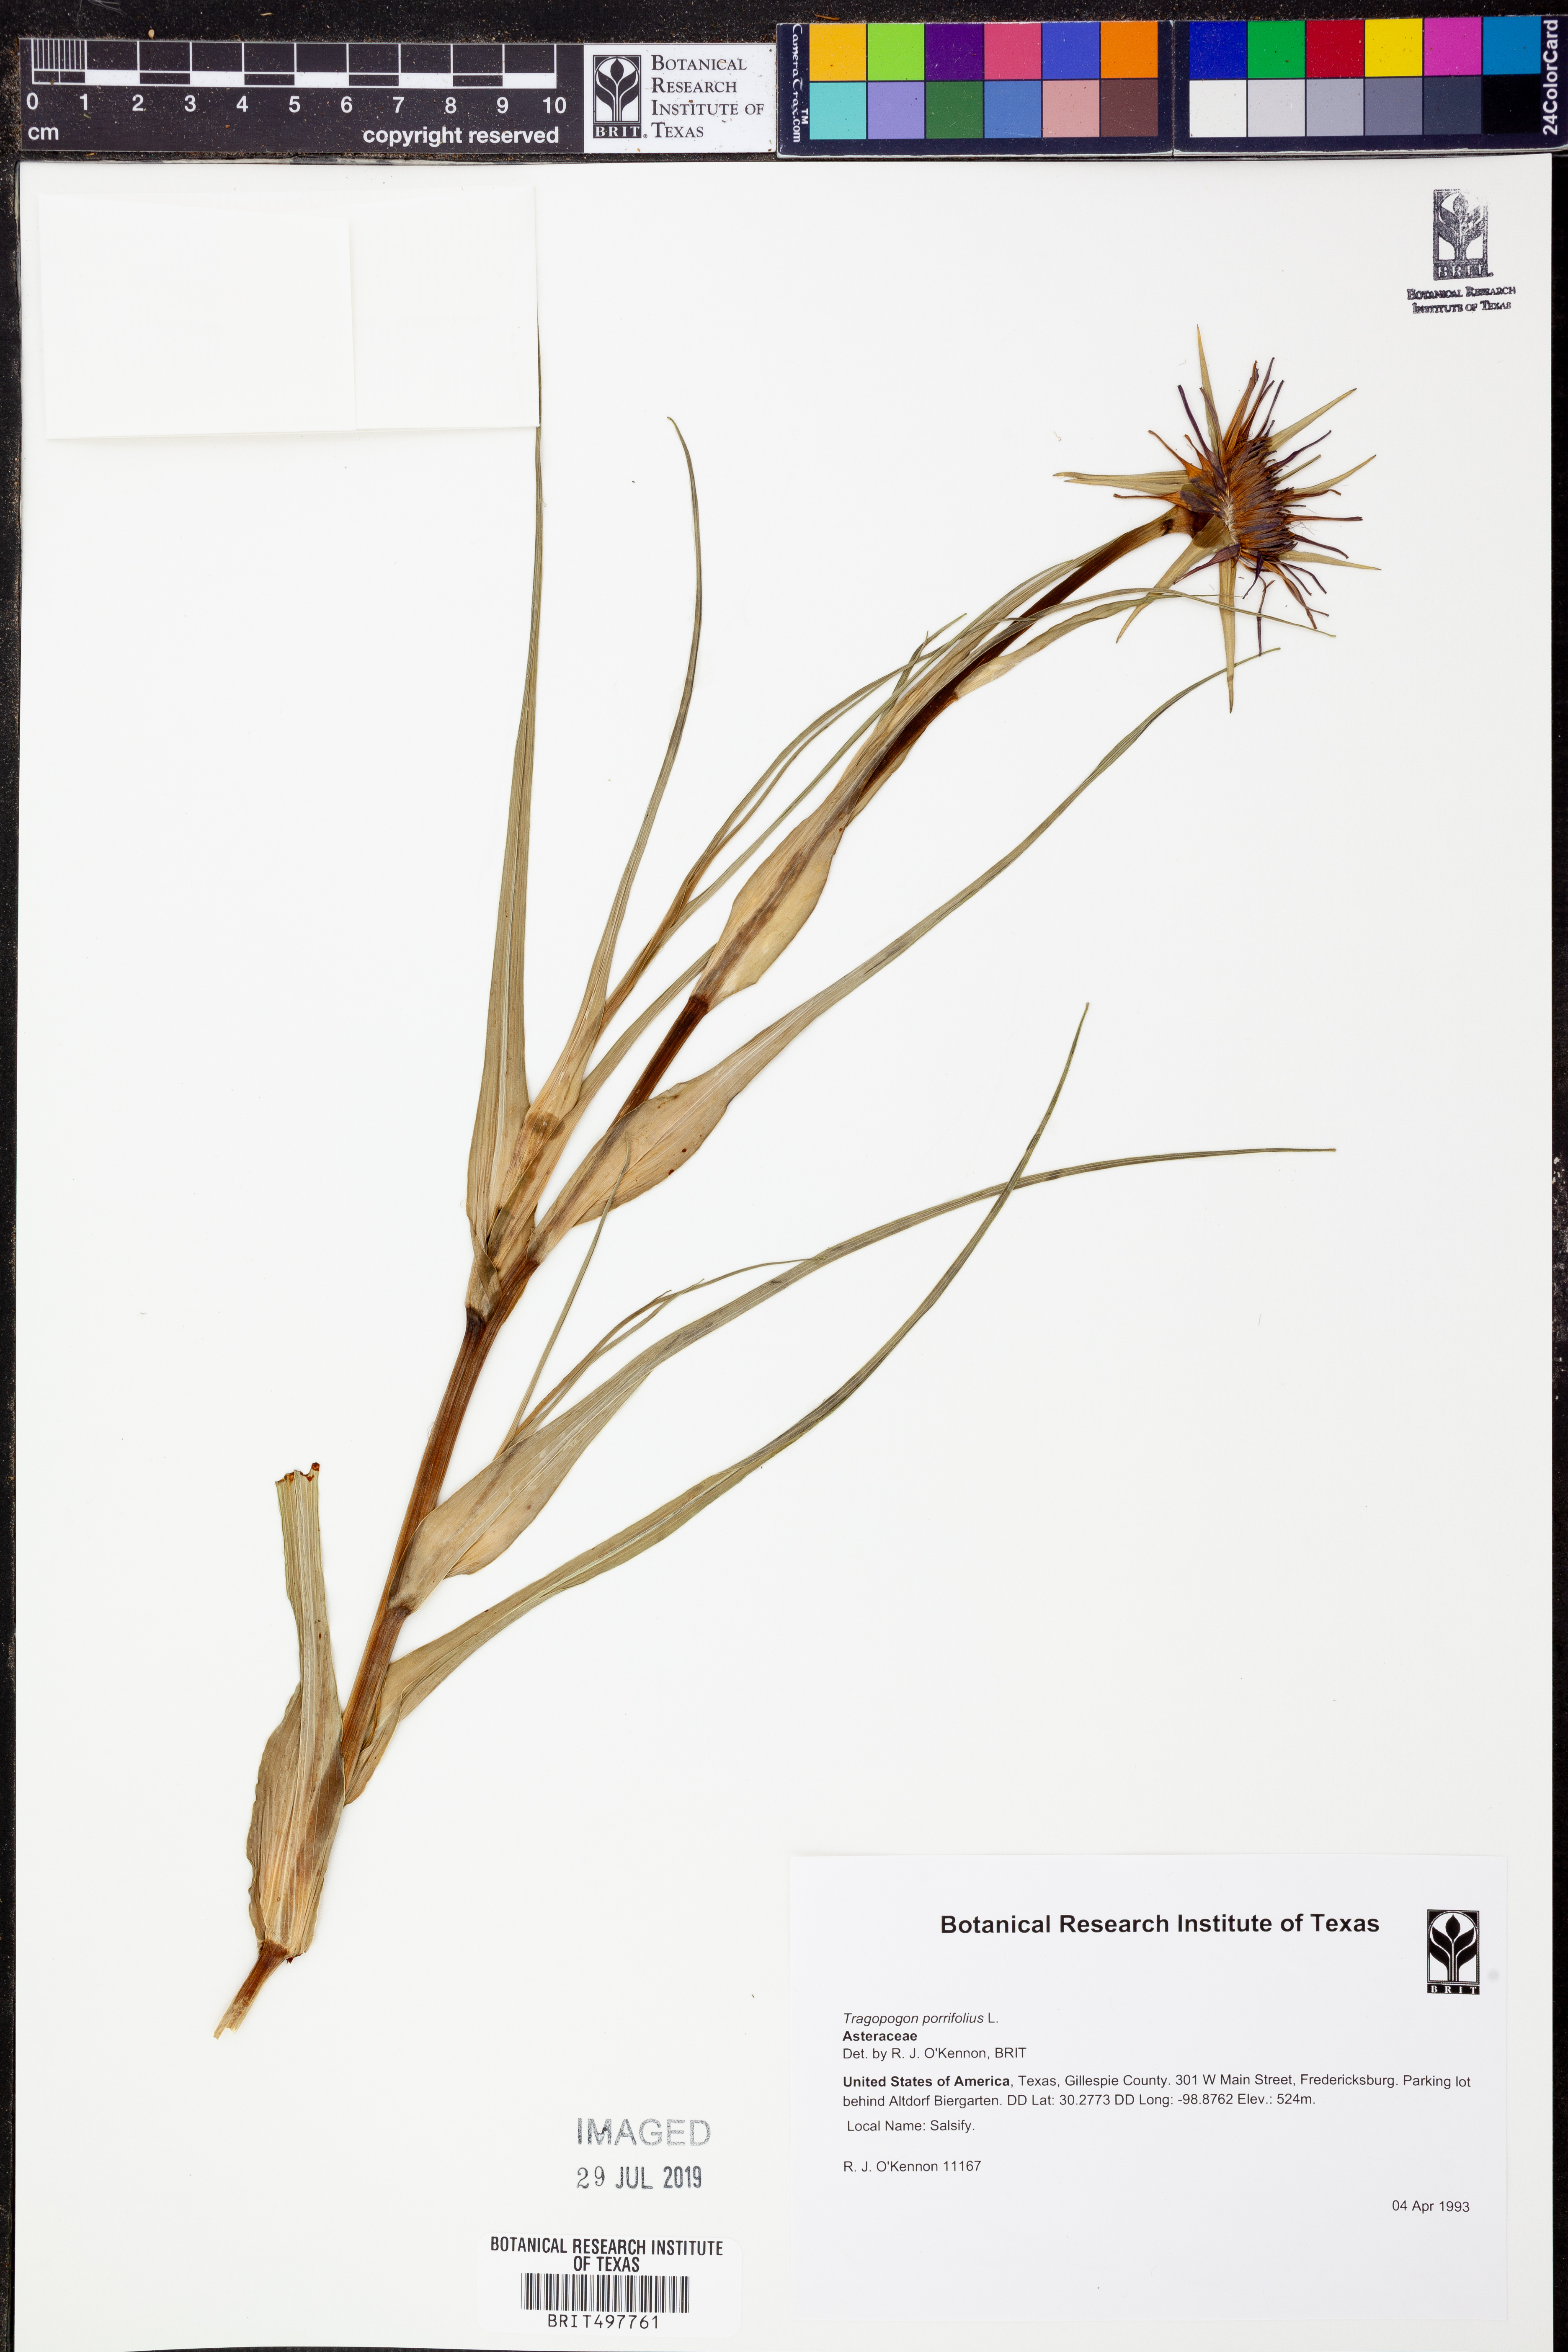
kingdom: Plantae
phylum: Tracheophyta
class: Magnoliopsida
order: Asterales
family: Asteraceae
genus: Tragopogon
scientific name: Tragopogon porrifolius
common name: Salsify
